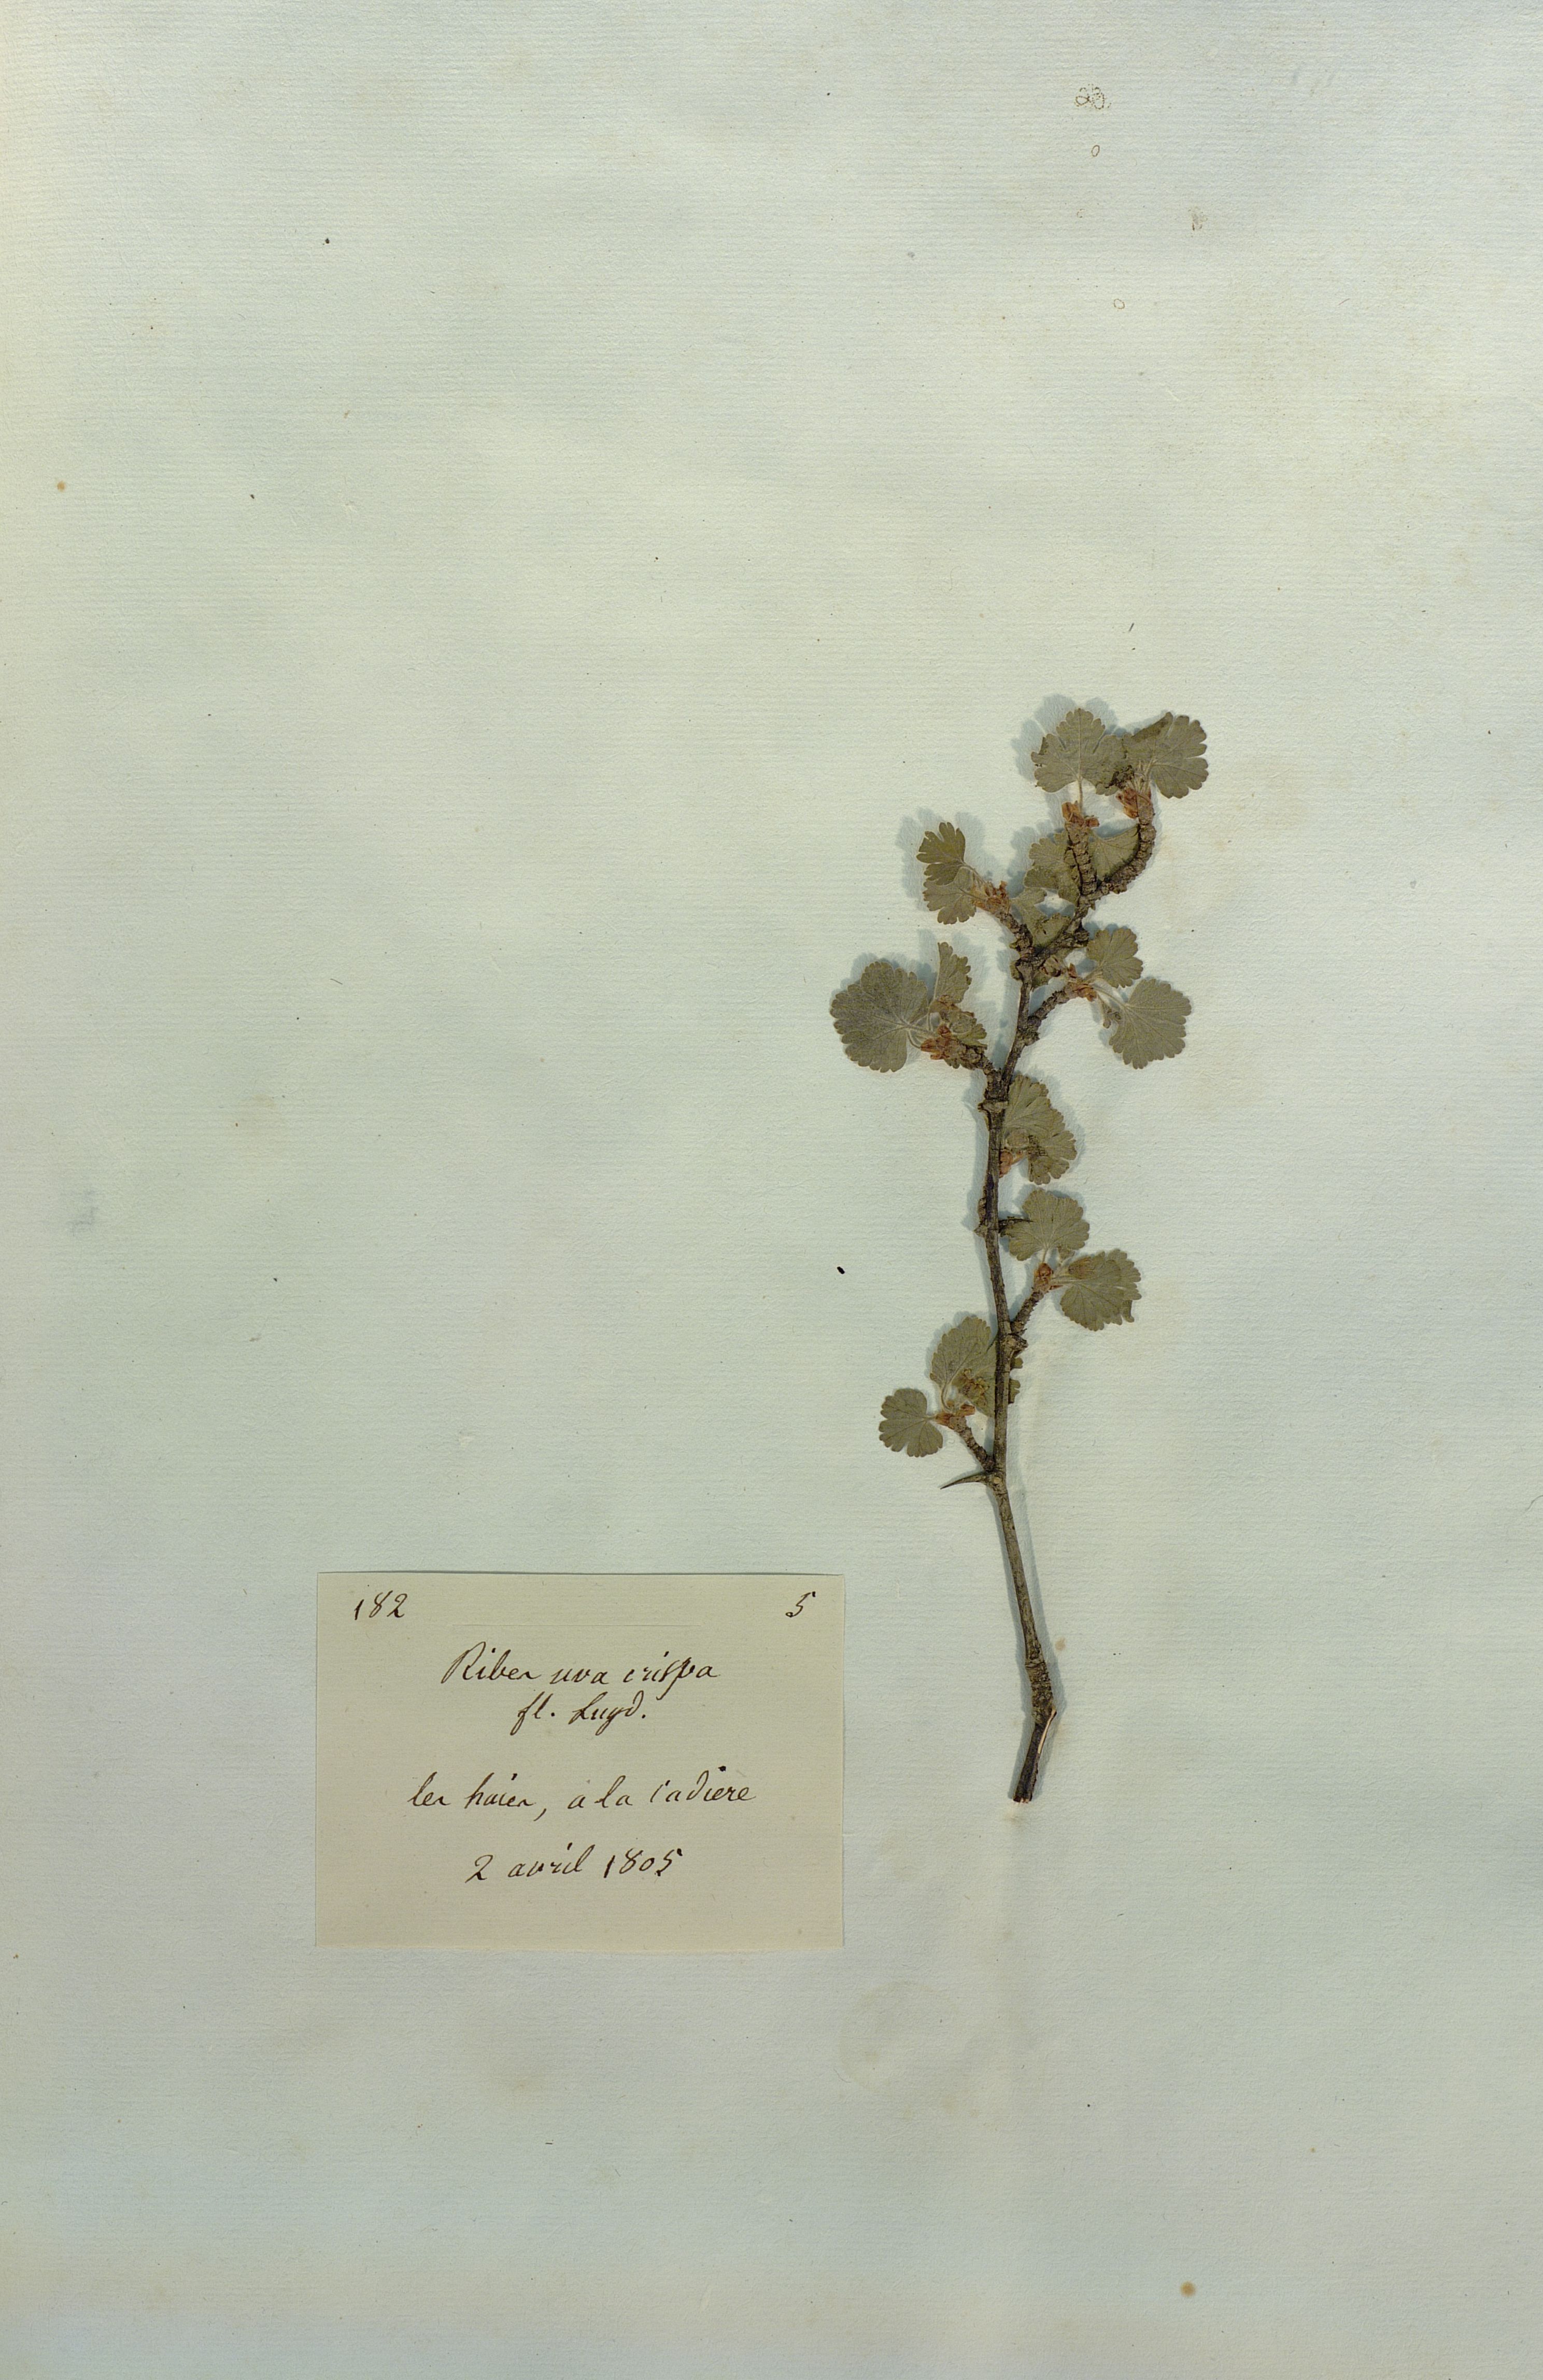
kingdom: Plantae
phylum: Tracheophyta
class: Magnoliopsida
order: Saxifragales
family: Grossulariaceae
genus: Ribes
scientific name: Ribes uva-crispa
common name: Gooseberry
